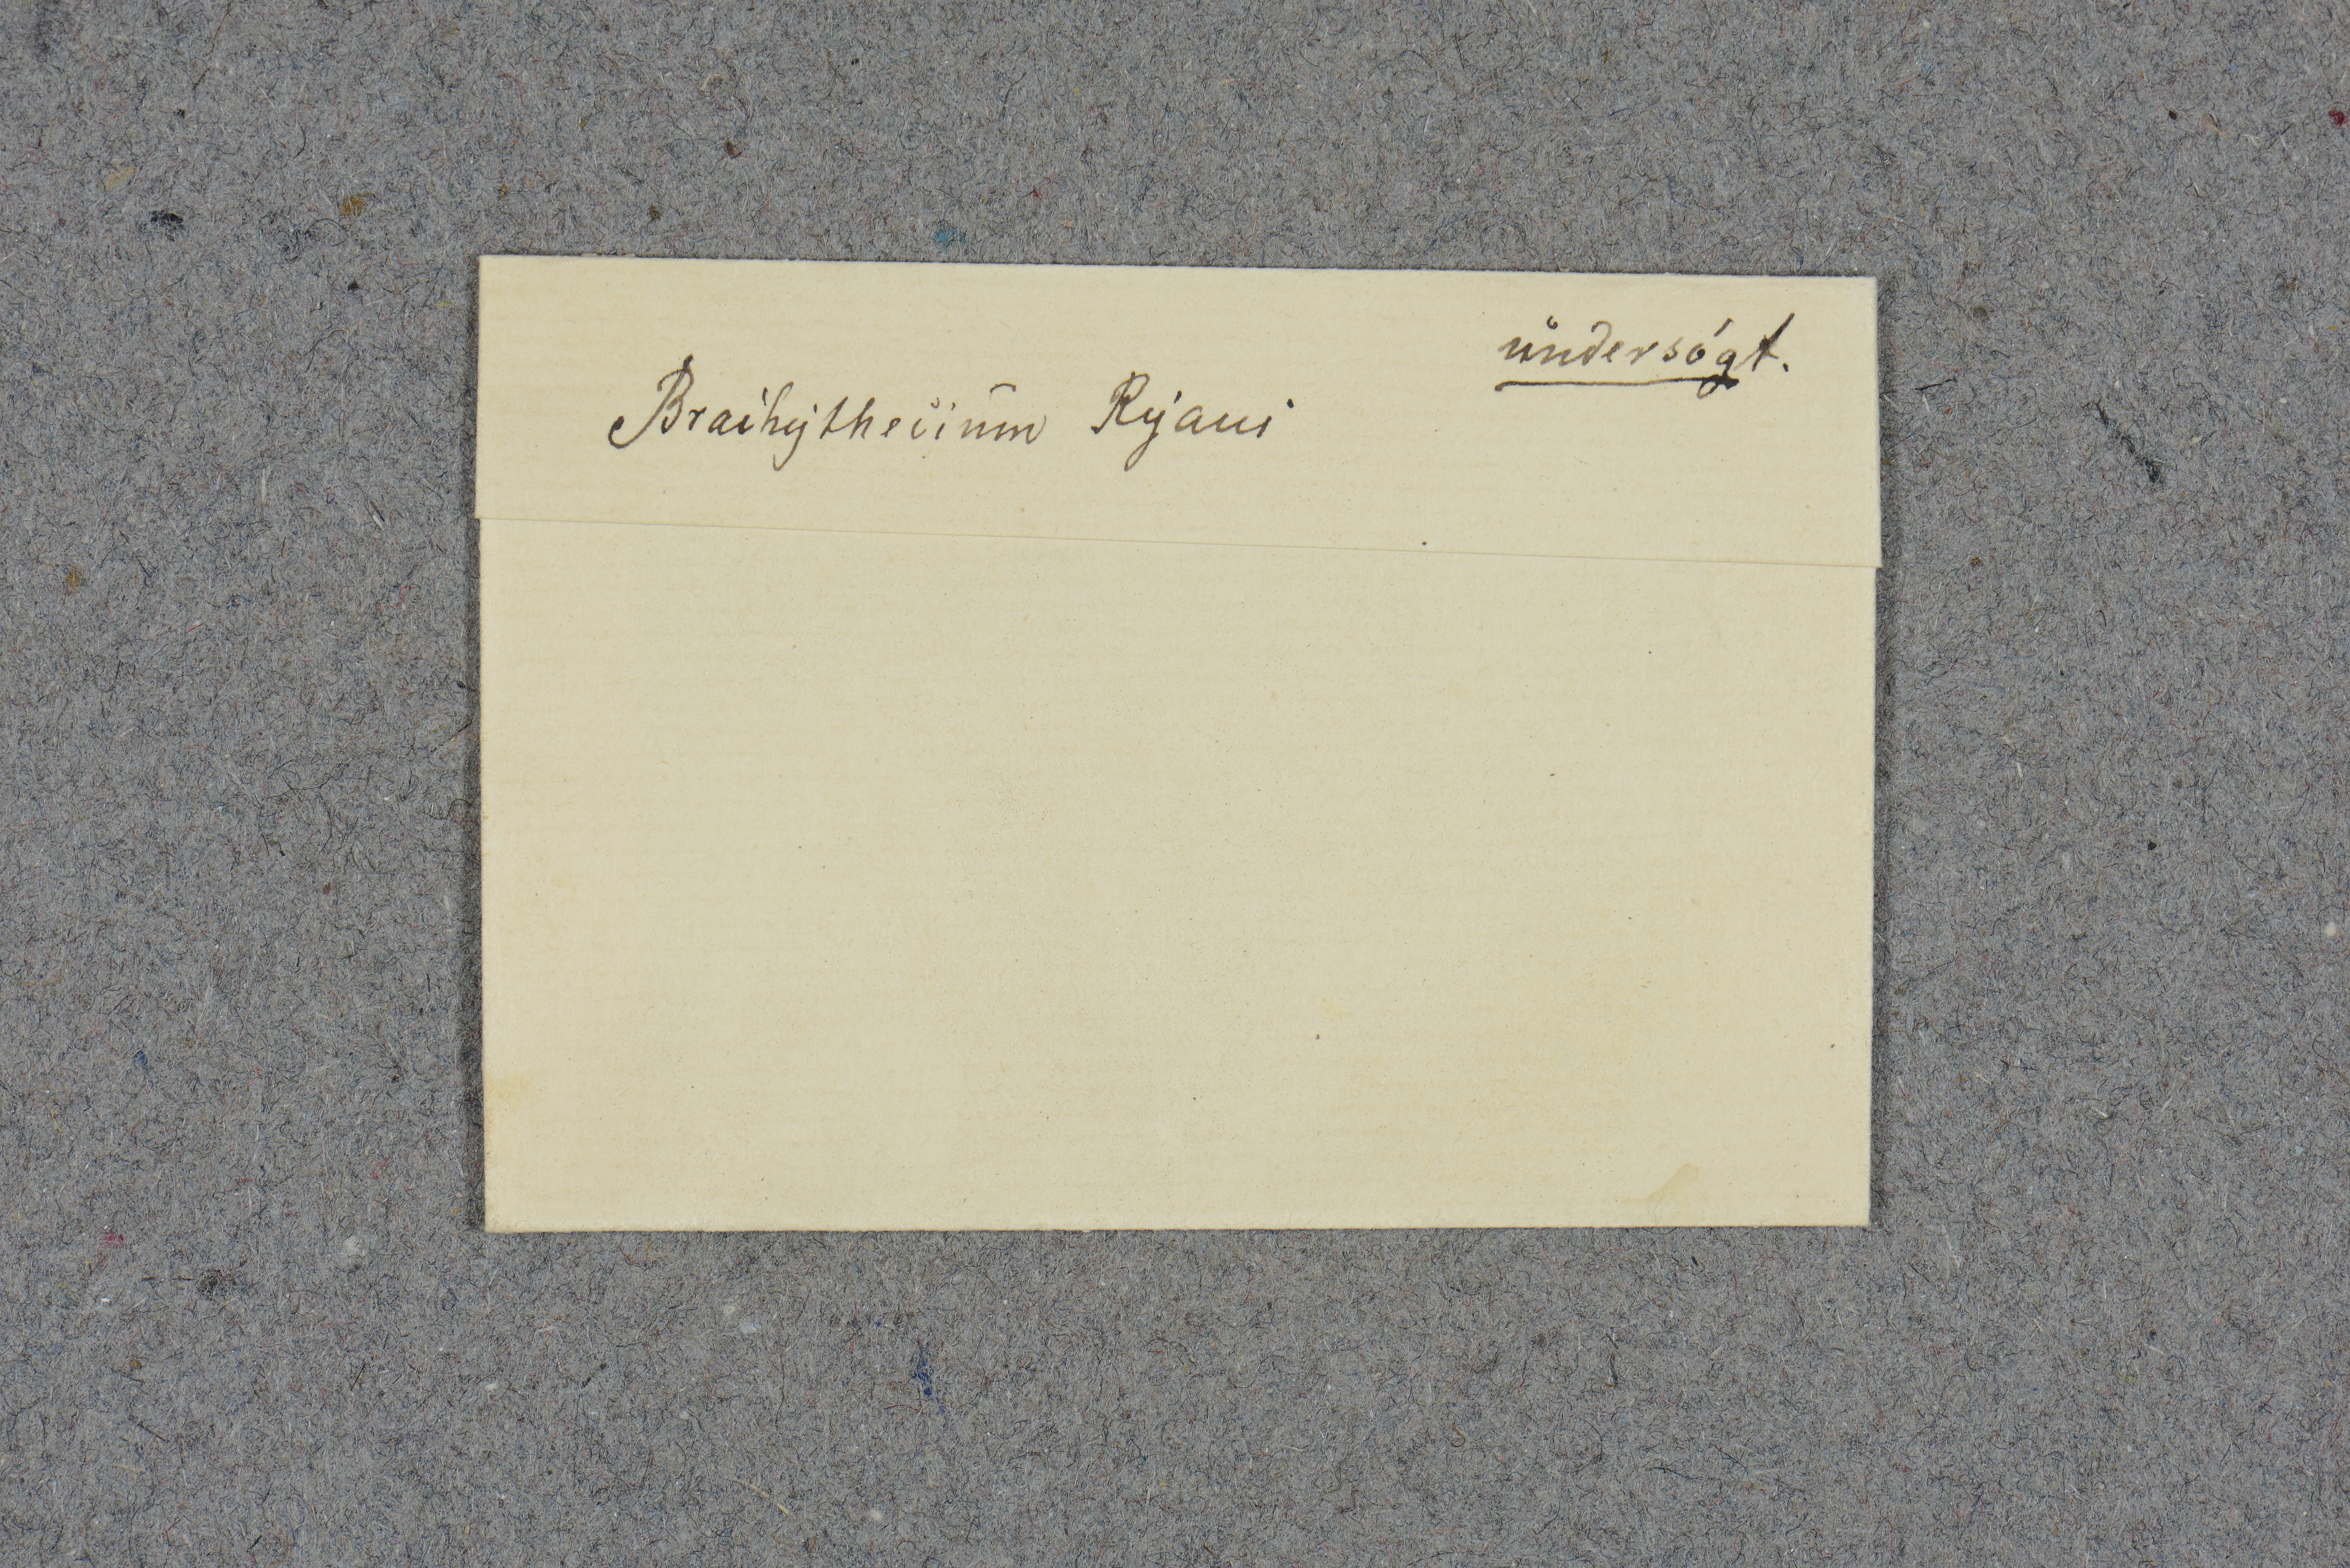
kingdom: Plantae
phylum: Bryophyta
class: Bryopsida
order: Hypnales
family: Brachytheciaceae
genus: Brachythecium
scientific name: Brachythecium salebrosum
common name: Smooth-stalk feather-moss
